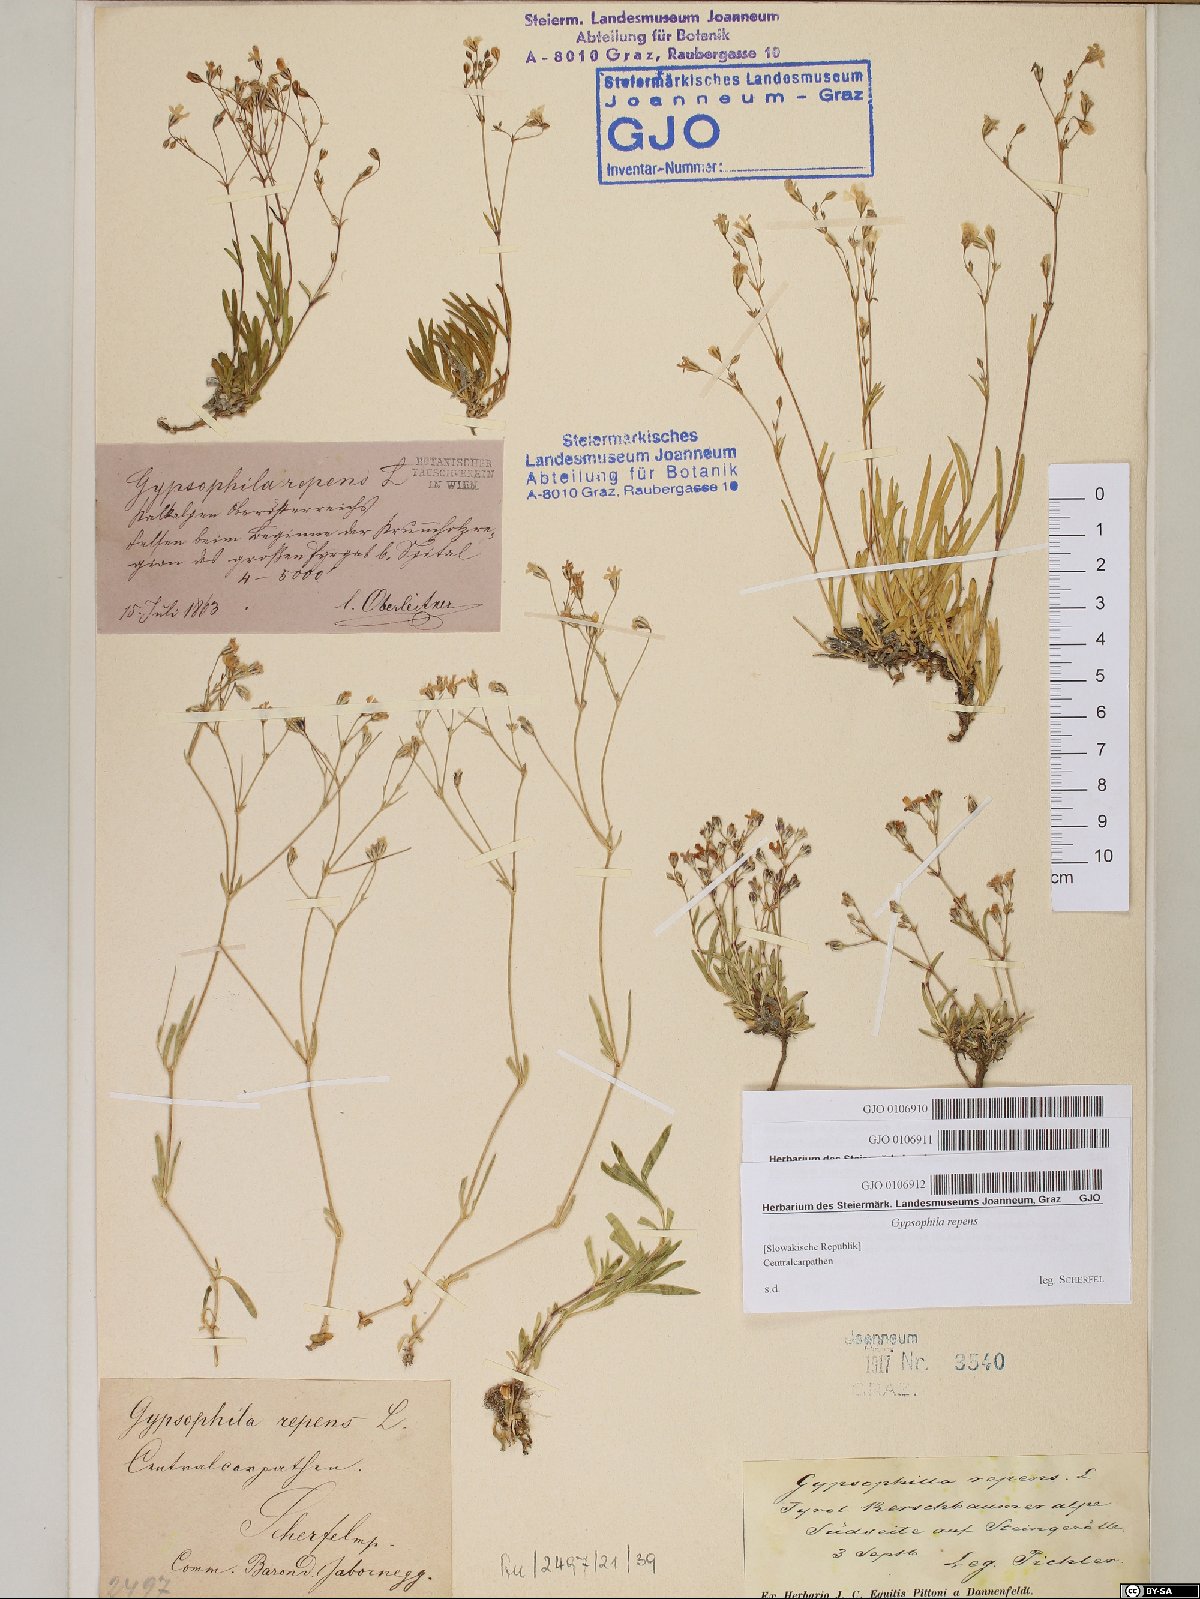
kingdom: Plantae
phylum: Tracheophyta
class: Magnoliopsida
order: Caryophyllales
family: Caryophyllaceae
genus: Gypsophila
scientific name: Gypsophila repens
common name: Creeping baby's-breath
